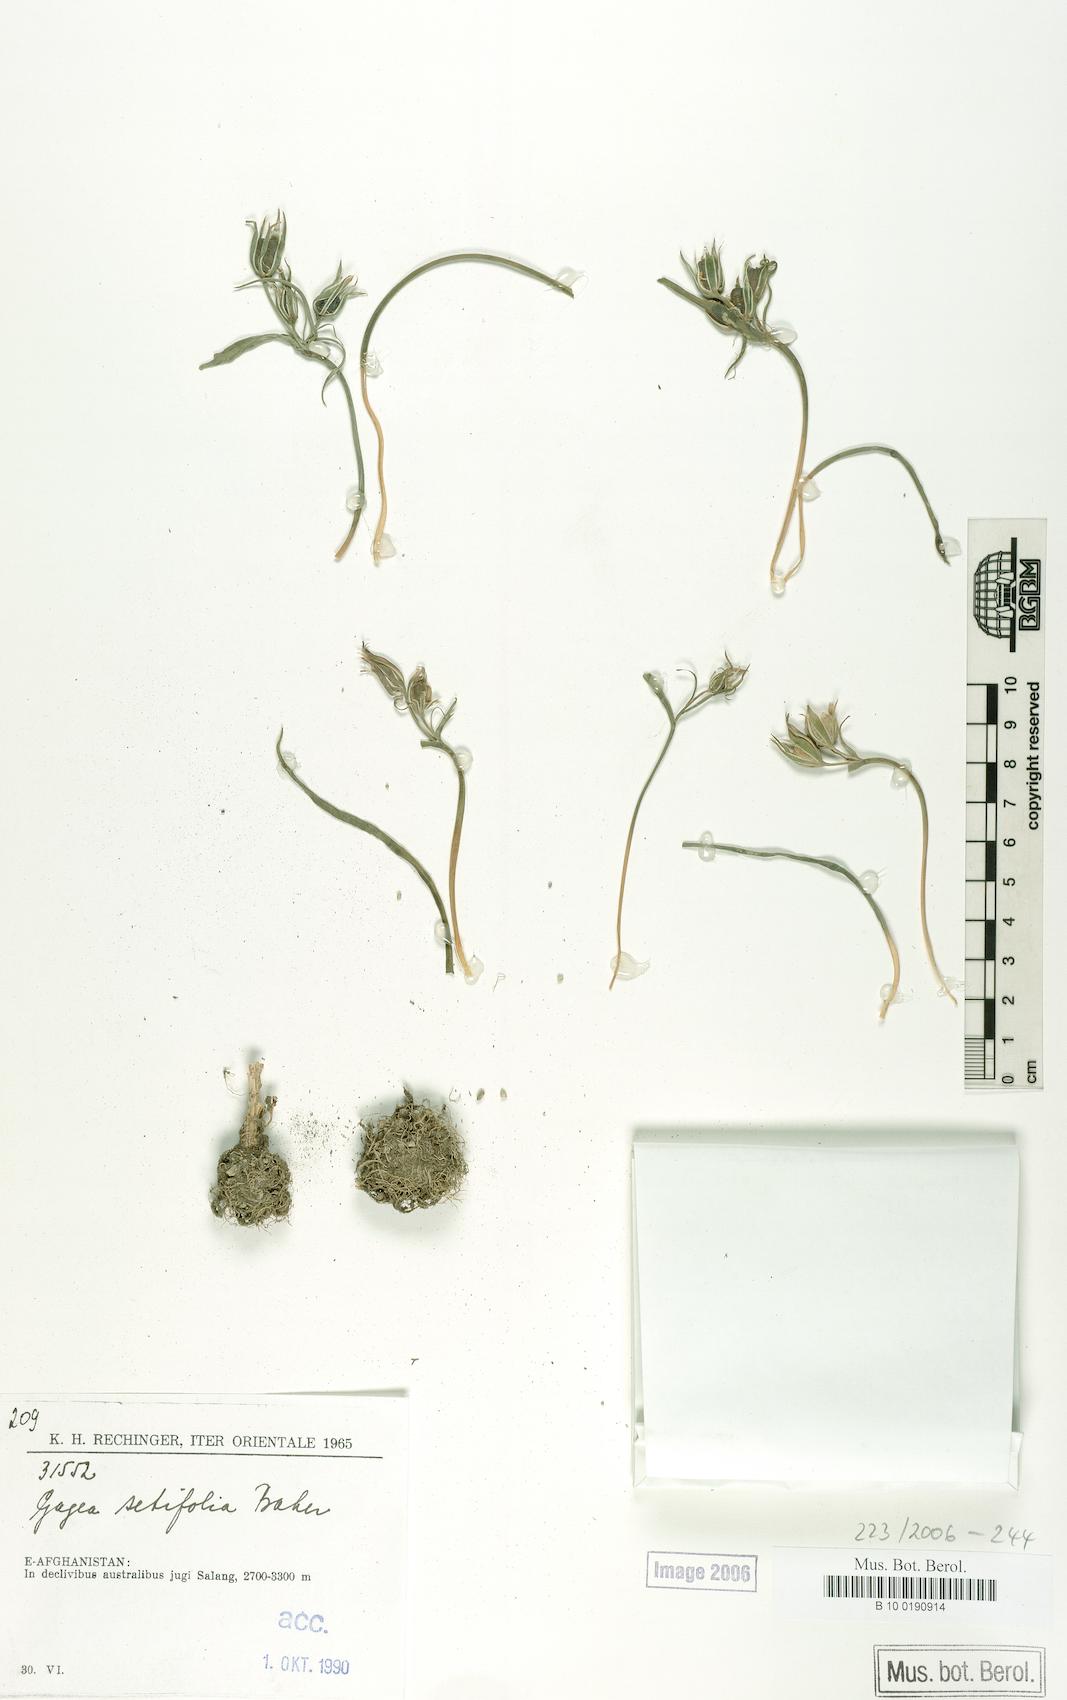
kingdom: Plantae
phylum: Tracheophyta
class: Liliopsida
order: Liliales
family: Liliaceae
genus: Gagea
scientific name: Gagea setifolia
